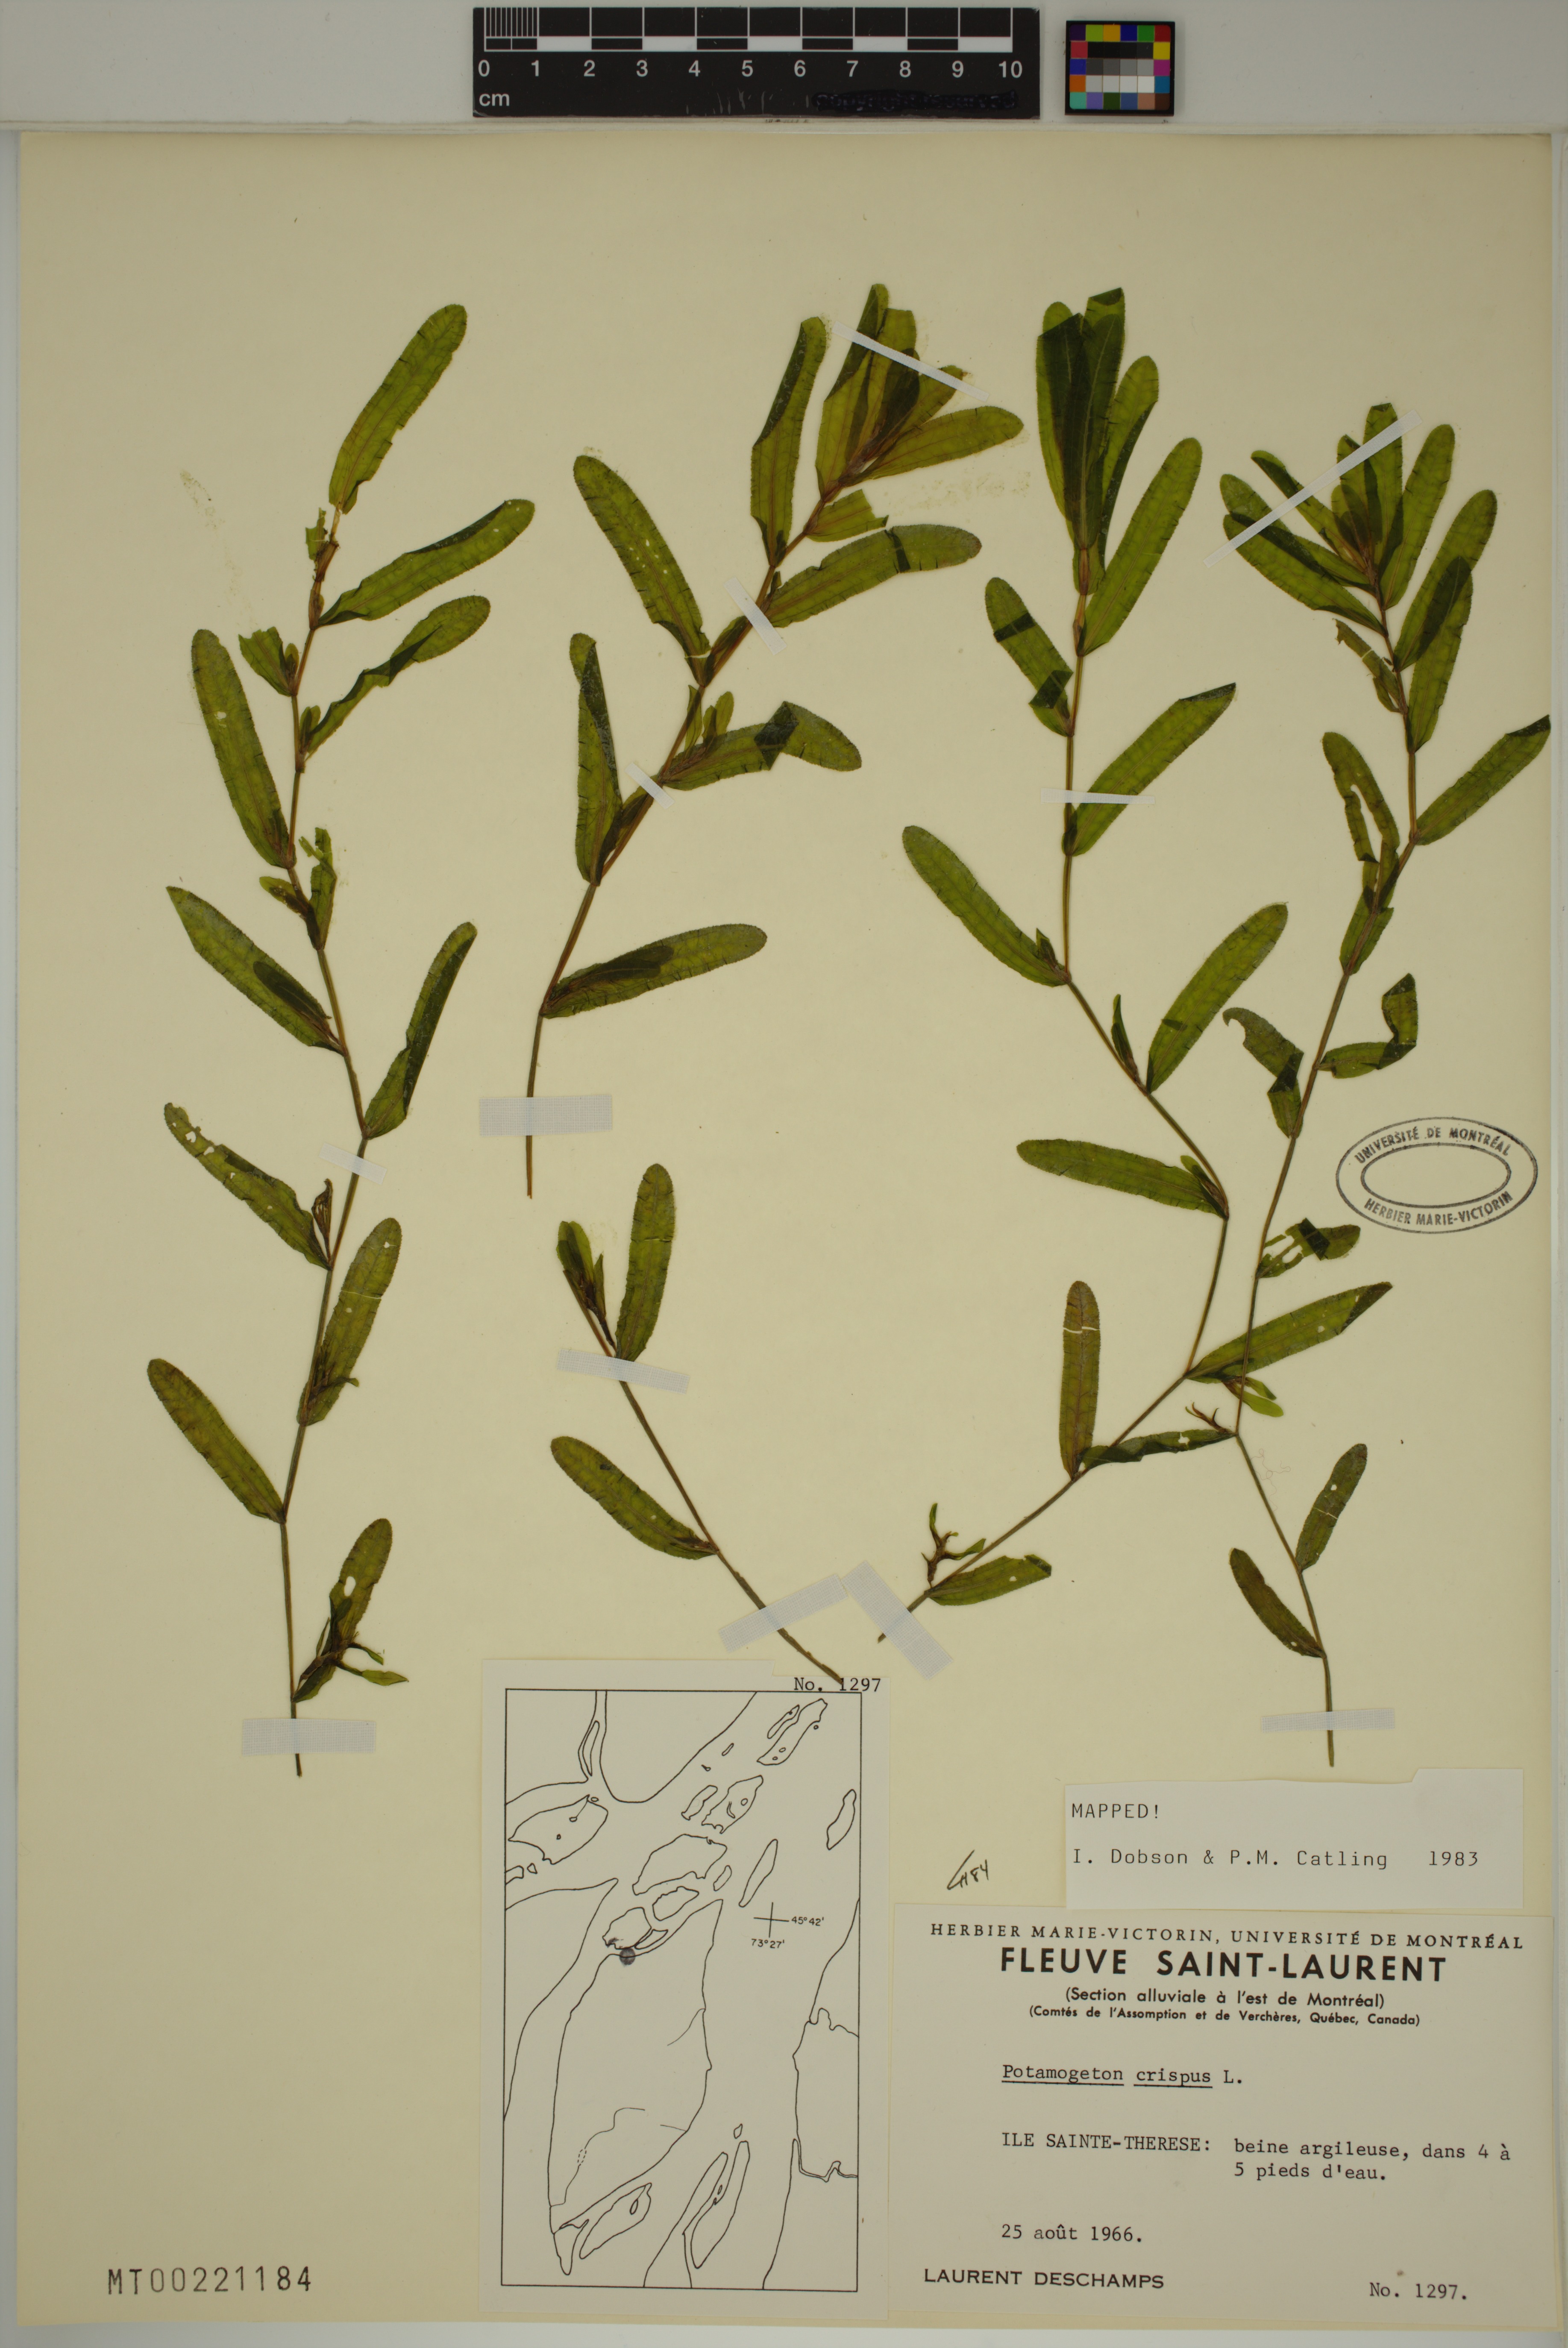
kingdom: Plantae
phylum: Tracheophyta
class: Liliopsida
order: Alismatales
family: Potamogetonaceae
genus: Potamogeton
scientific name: Potamogeton crispus
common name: Curled pondweed
